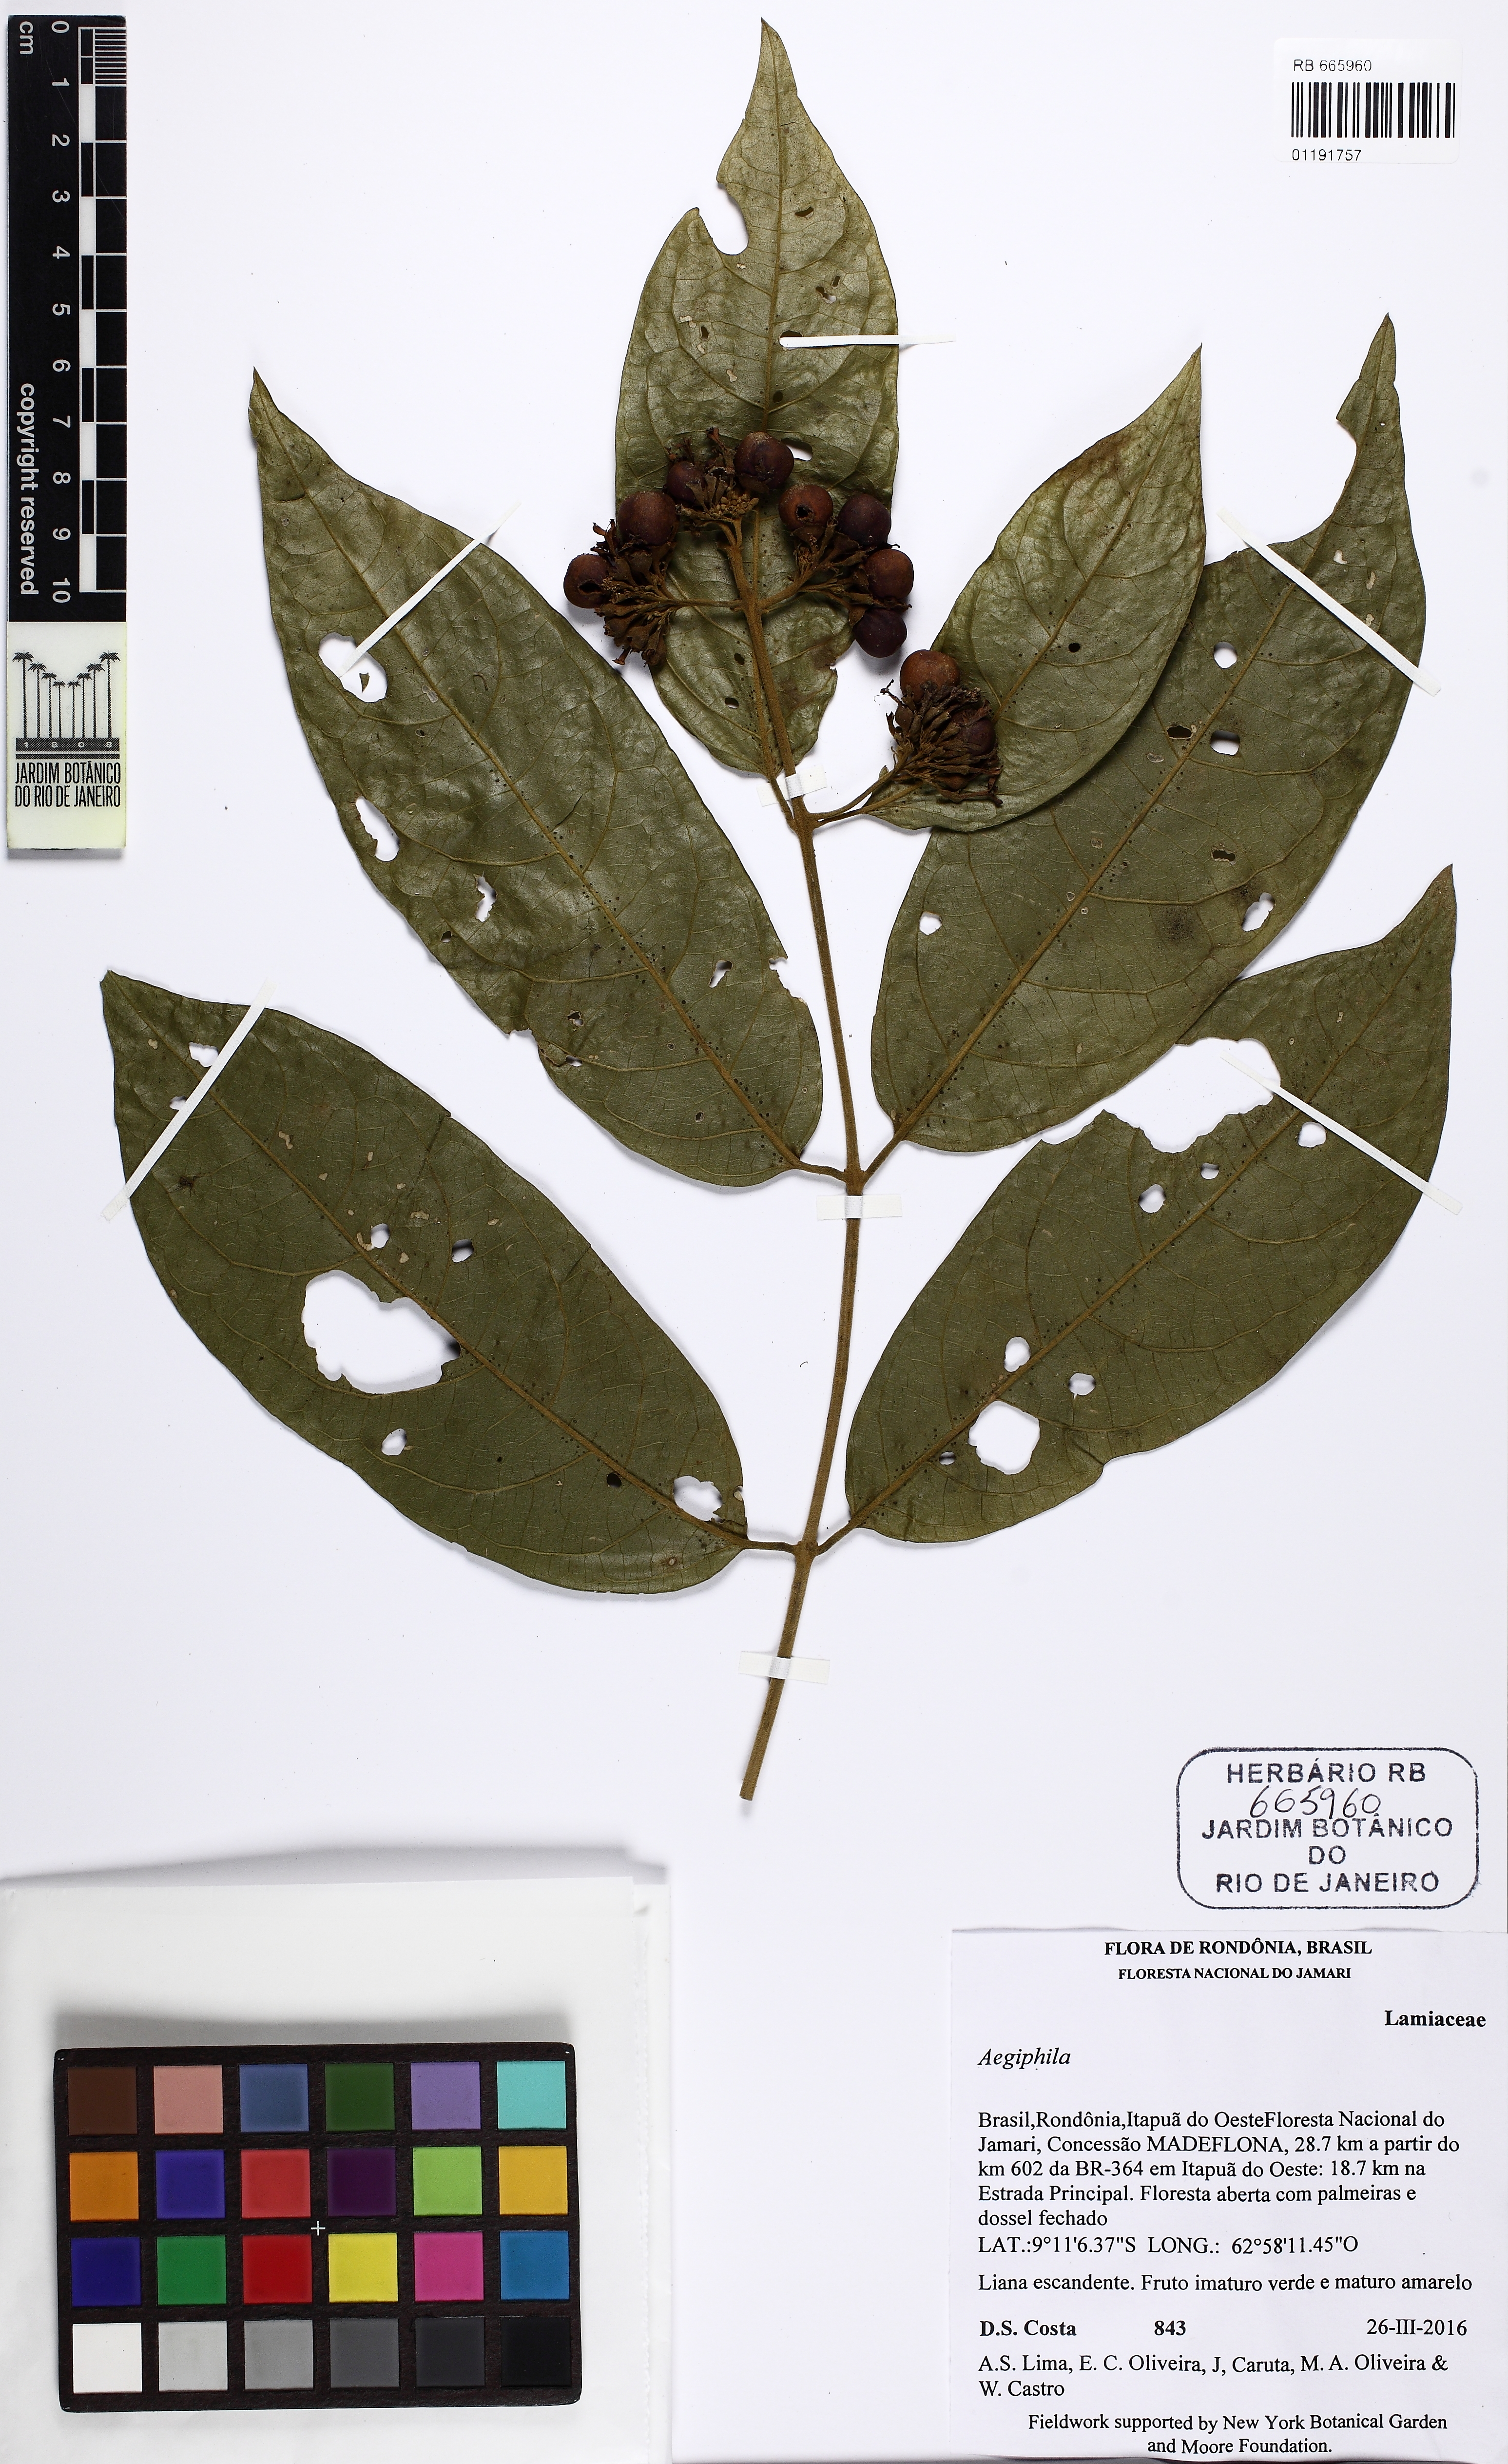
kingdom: Plantae
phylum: Tracheophyta
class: Magnoliopsida
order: Lamiales
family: Lamiaceae
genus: Aegiphila
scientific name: Aegiphila
